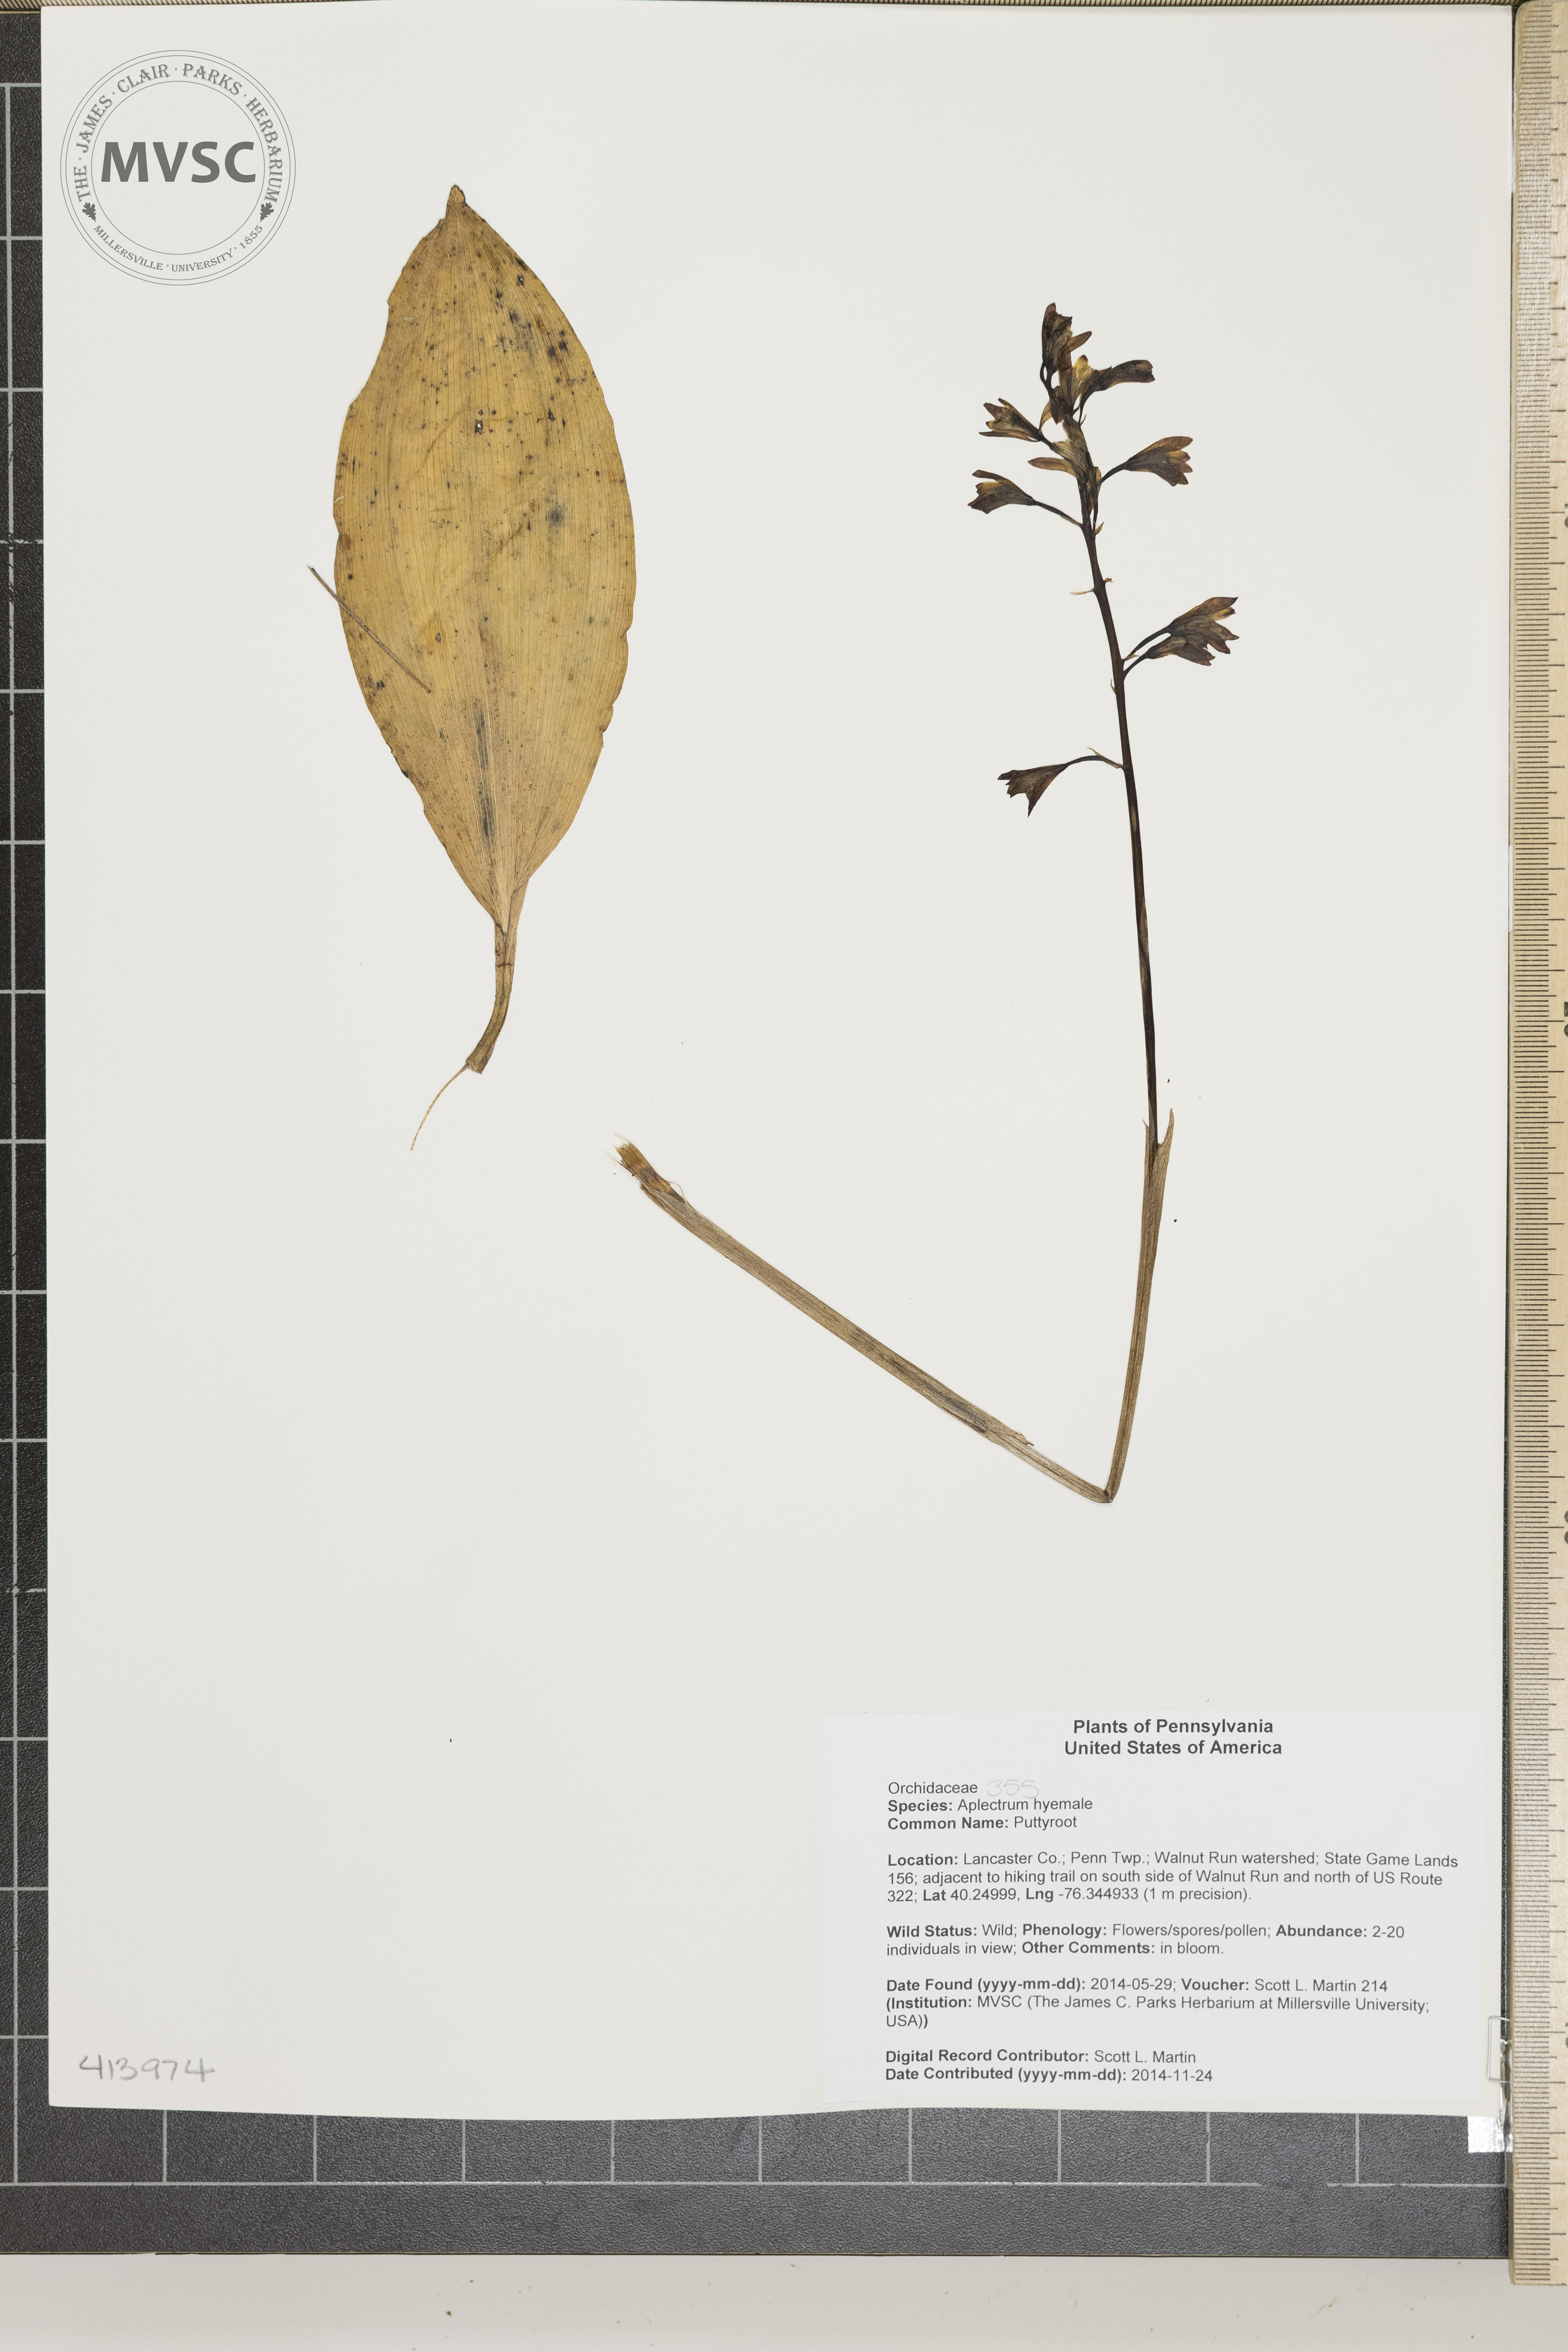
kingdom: Plantae
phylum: Tracheophyta
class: Liliopsida
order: Asparagales
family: Orchidaceae
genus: Aplectrum
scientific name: Aplectrum hyemale
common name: Puttyroot
